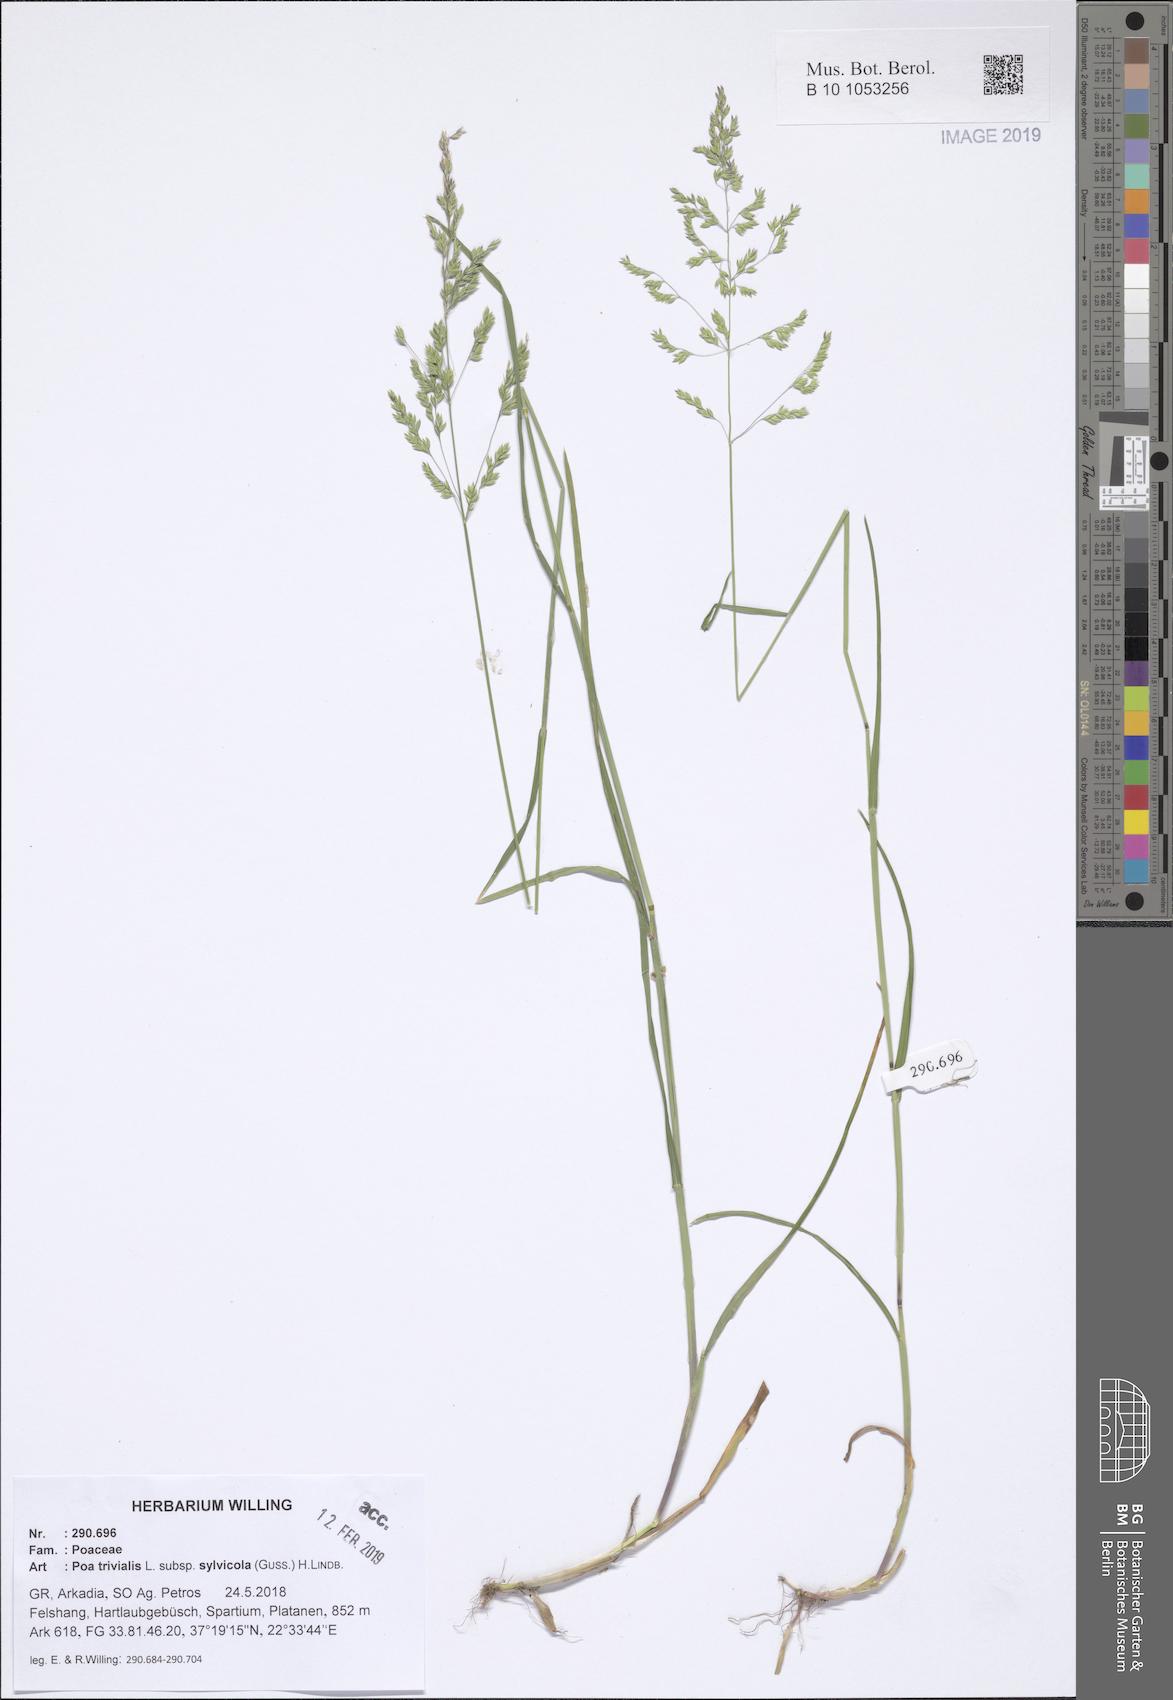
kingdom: Plantae
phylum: Tracheophyta
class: Liliopsida
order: Poales
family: Poaceae
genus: Poa
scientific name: Poa trivialis
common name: Rough bluegrass
